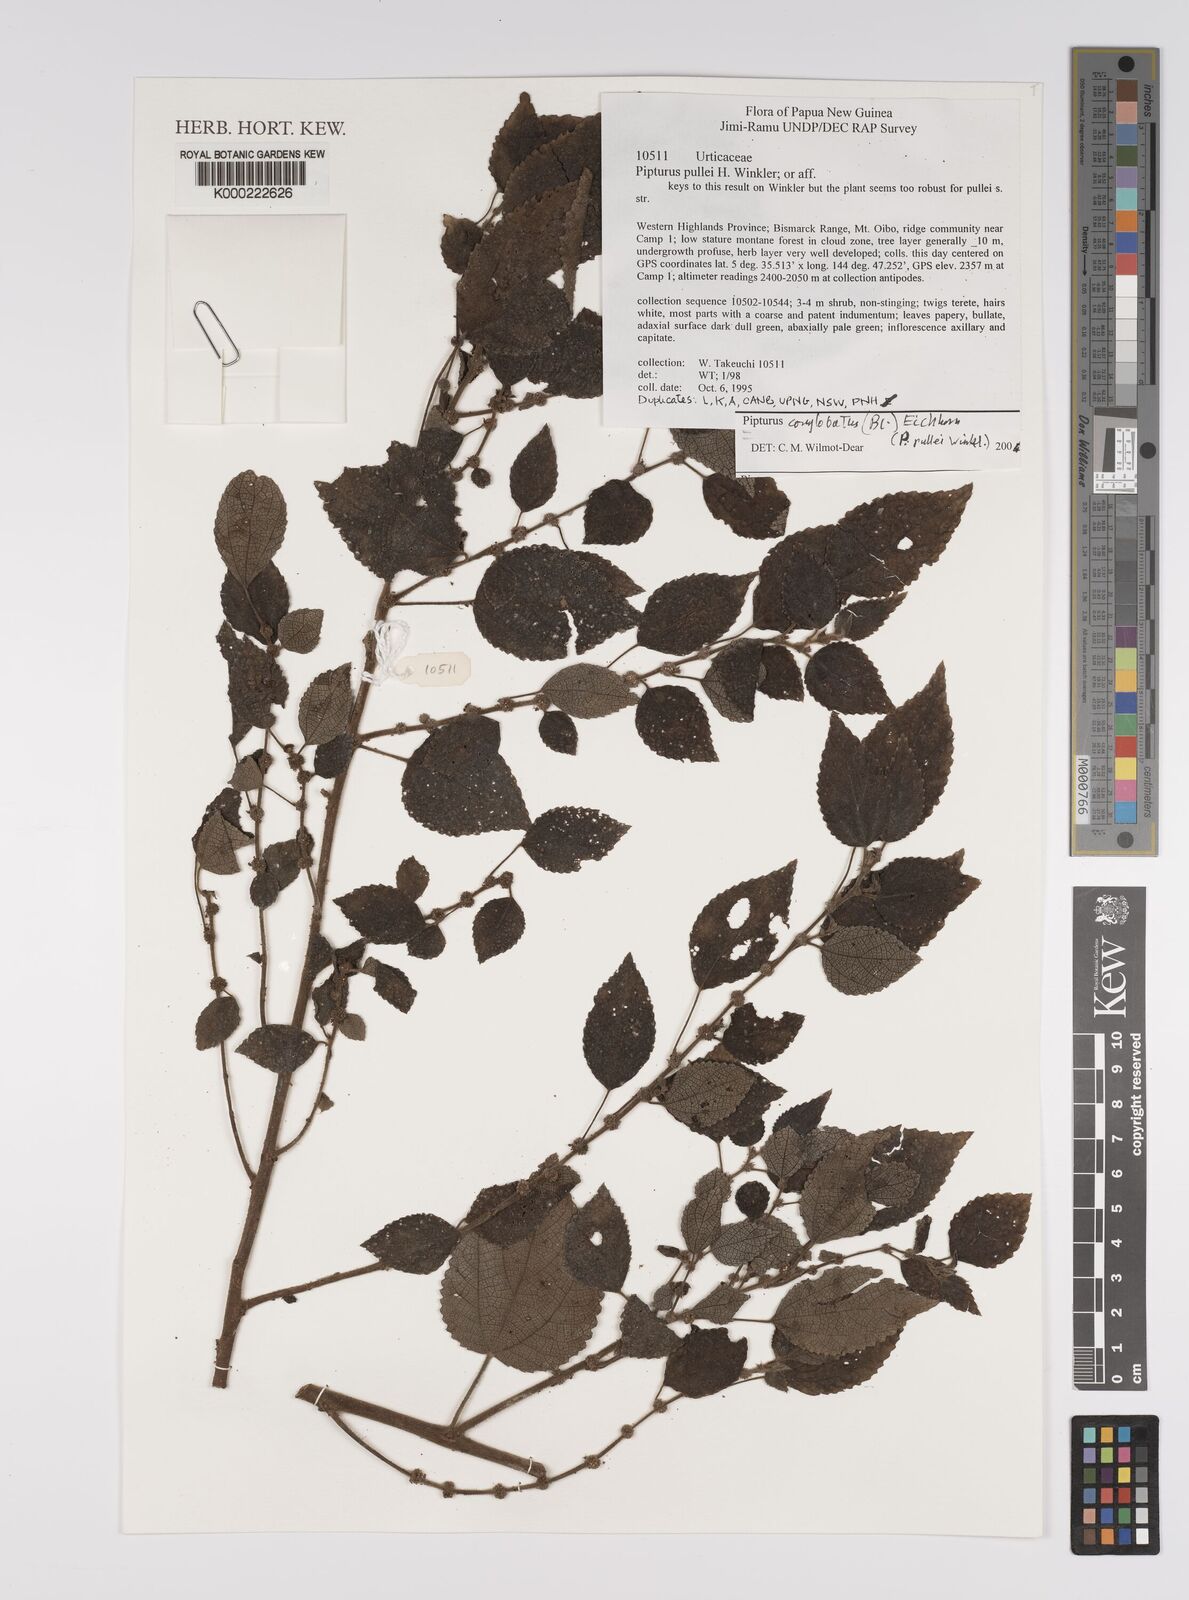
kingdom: Plantae
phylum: Tracheophyta
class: Magnoliopsida
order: Rosales
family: Urticaceae
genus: Pipturus
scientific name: Pipturus
